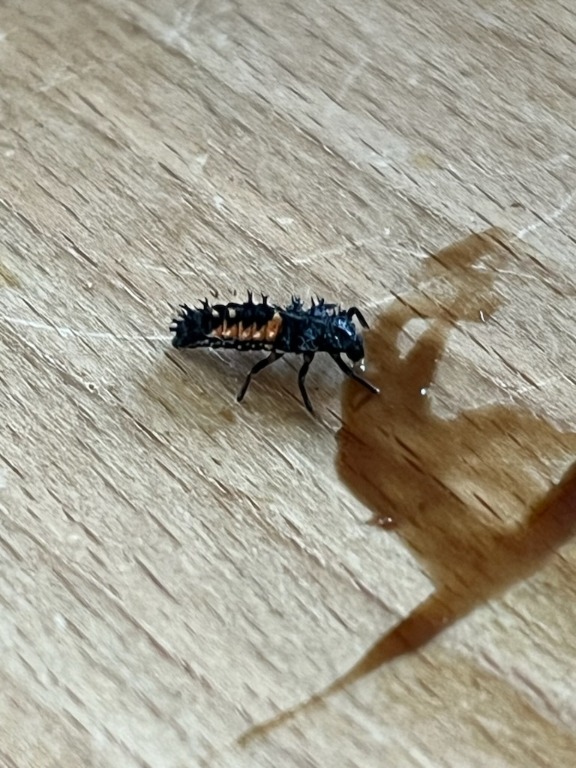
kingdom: Animalia
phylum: Arthropoda
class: Insecta
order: Coleoptera
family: Coccinellidae
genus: Harmonia
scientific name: Harmonia axyridis
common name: Harlekinmariehøne
